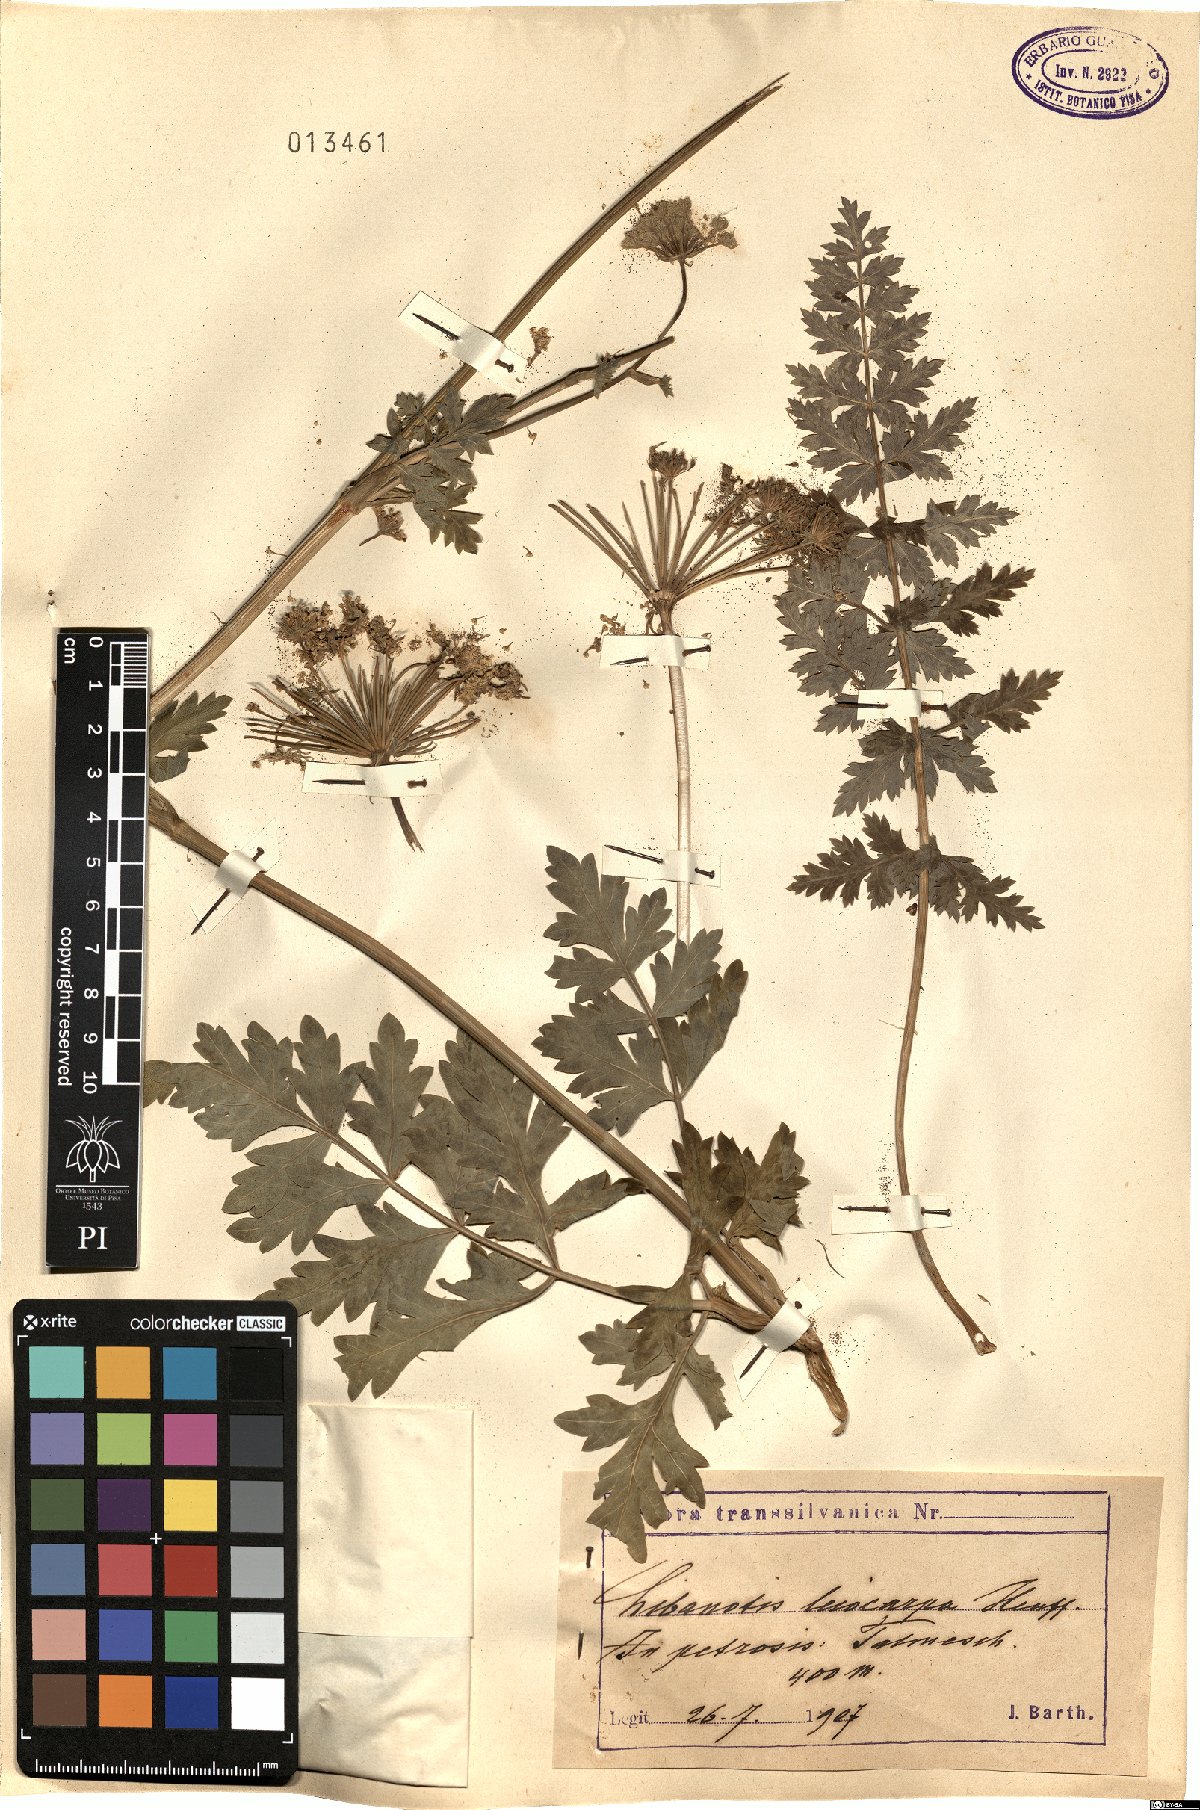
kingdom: Plantae
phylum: Tracheophyta
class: Magnoliopsida
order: Apiales
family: Apiaceae
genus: Seseli
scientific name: Seseli libanotis
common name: Mooncarrot
